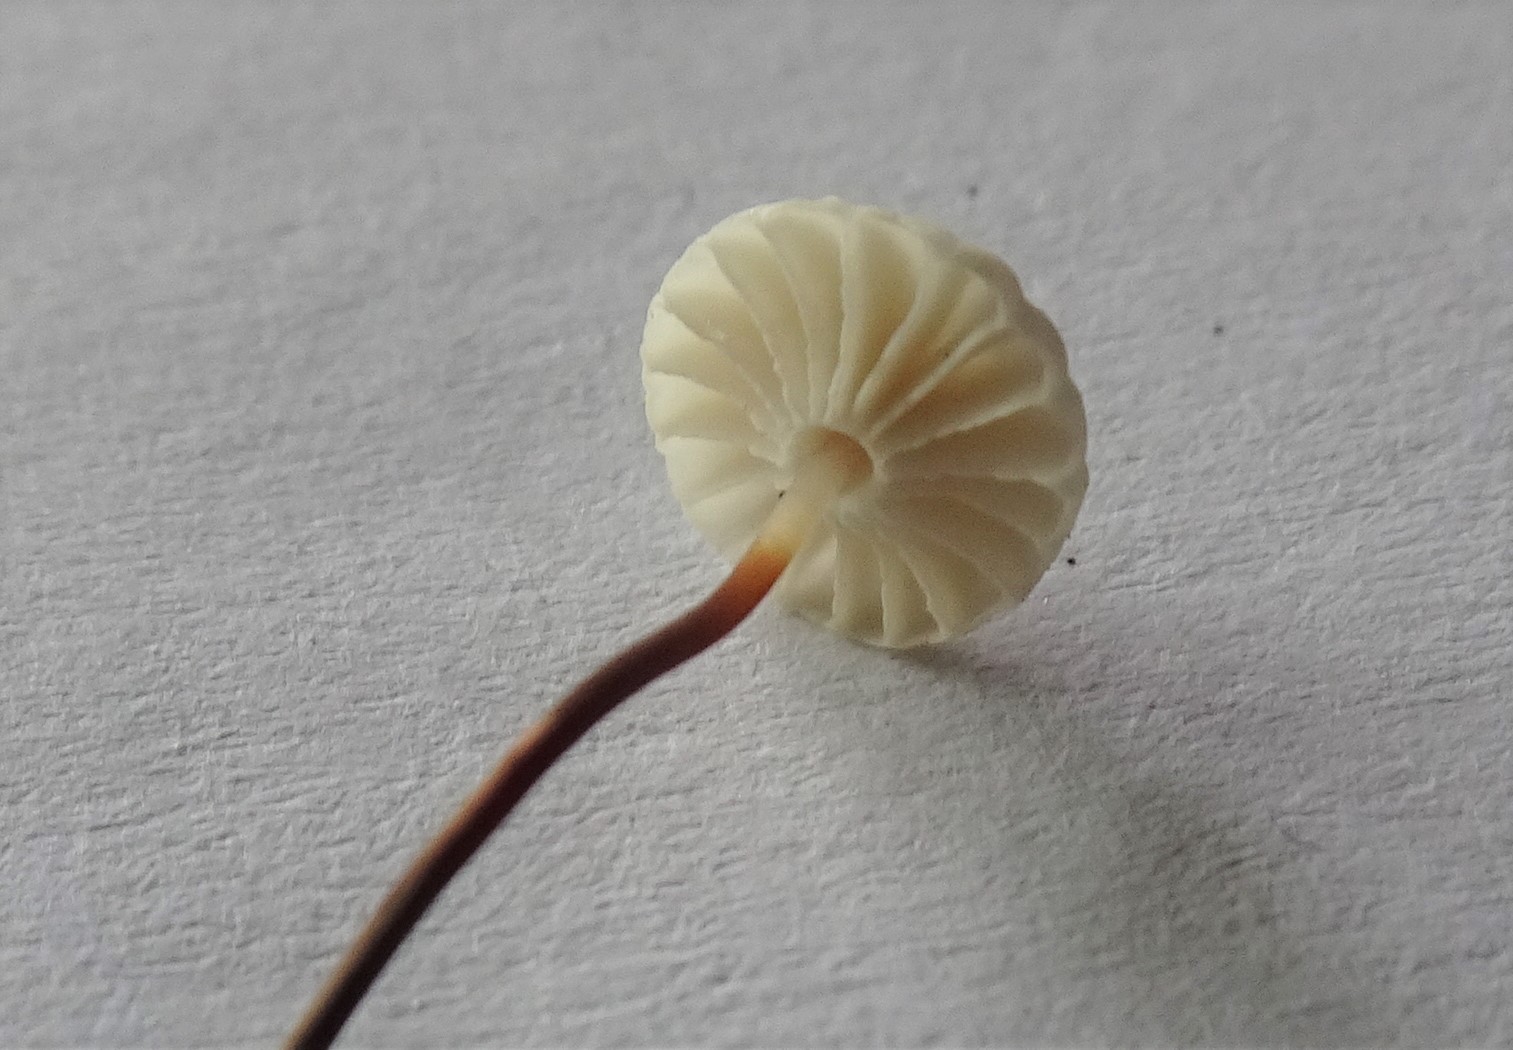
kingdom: Fungi
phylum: Basidiomycota
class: Agaricomycetes
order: Agaricales
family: Marasmiaceae
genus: Marasmius
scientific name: Marasmius rotula
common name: hjul-bruskhat
